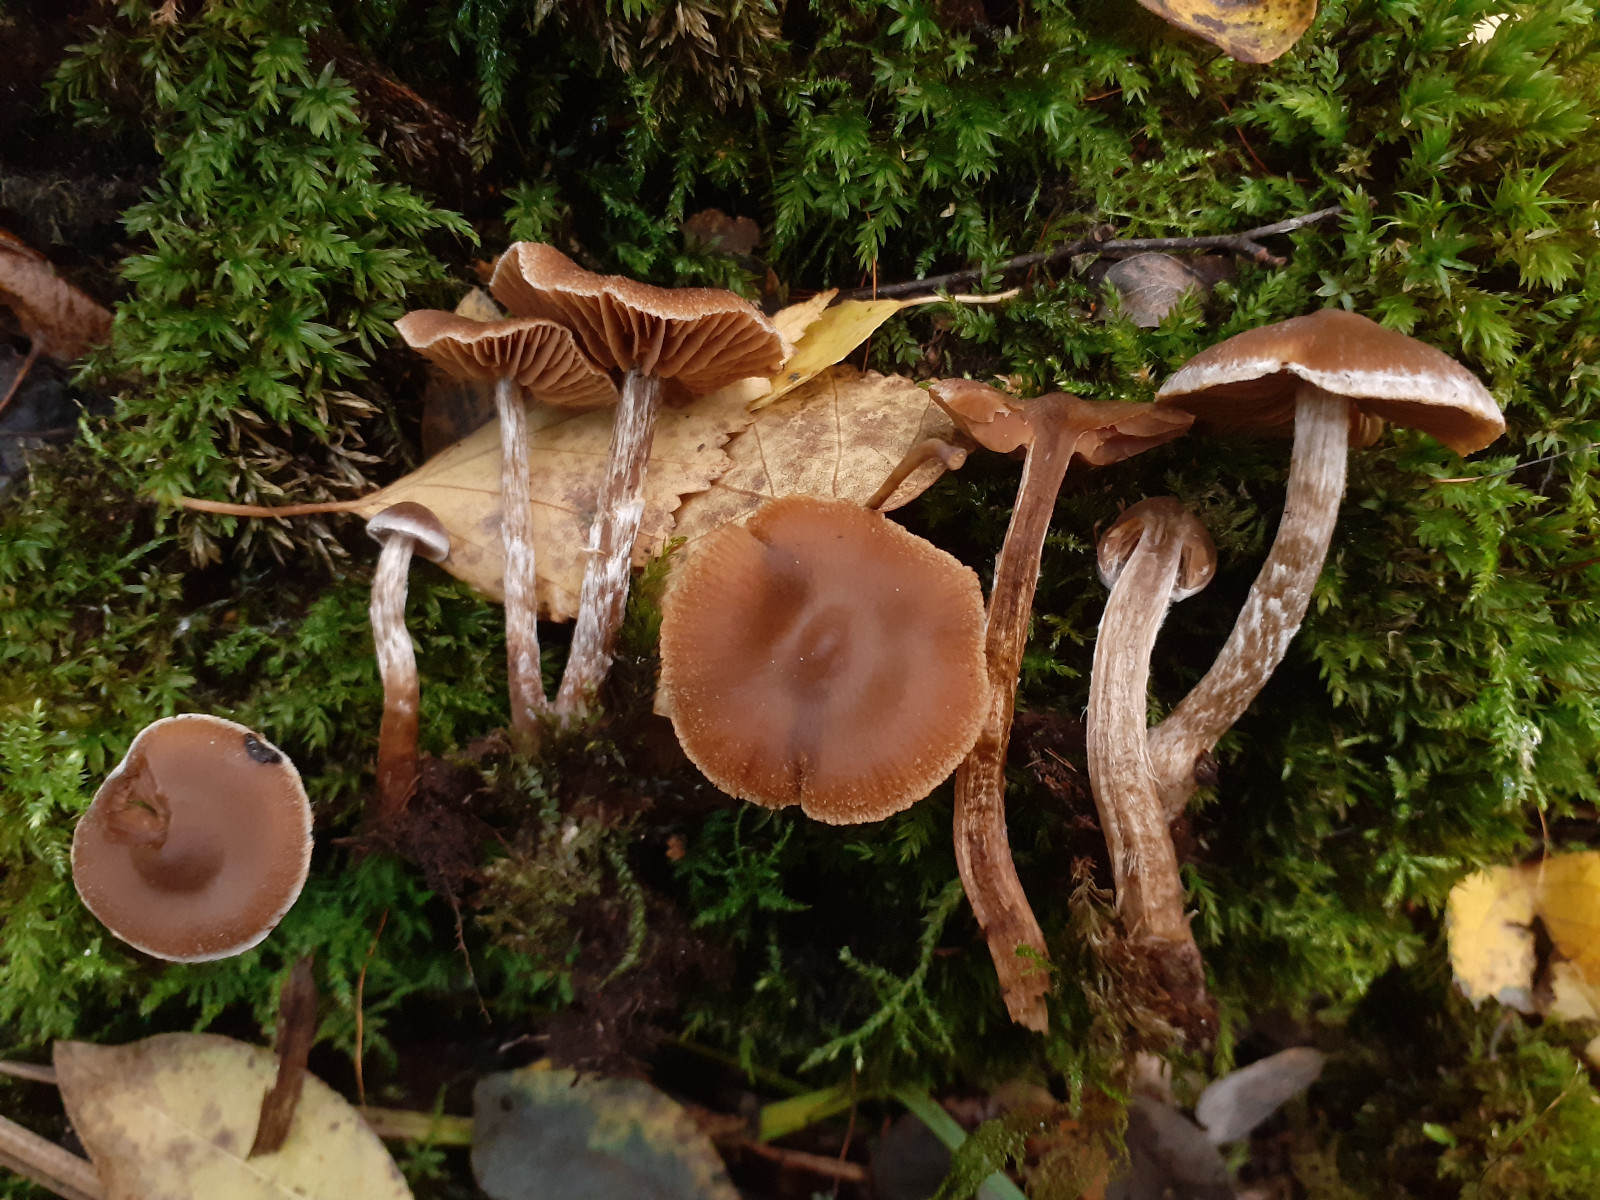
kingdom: Fungi
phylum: Basidiomycota
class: Agaricomycetes
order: Agaricales
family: Cortinariaceae
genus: Cortinarius
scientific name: Cortinarius flabellus
